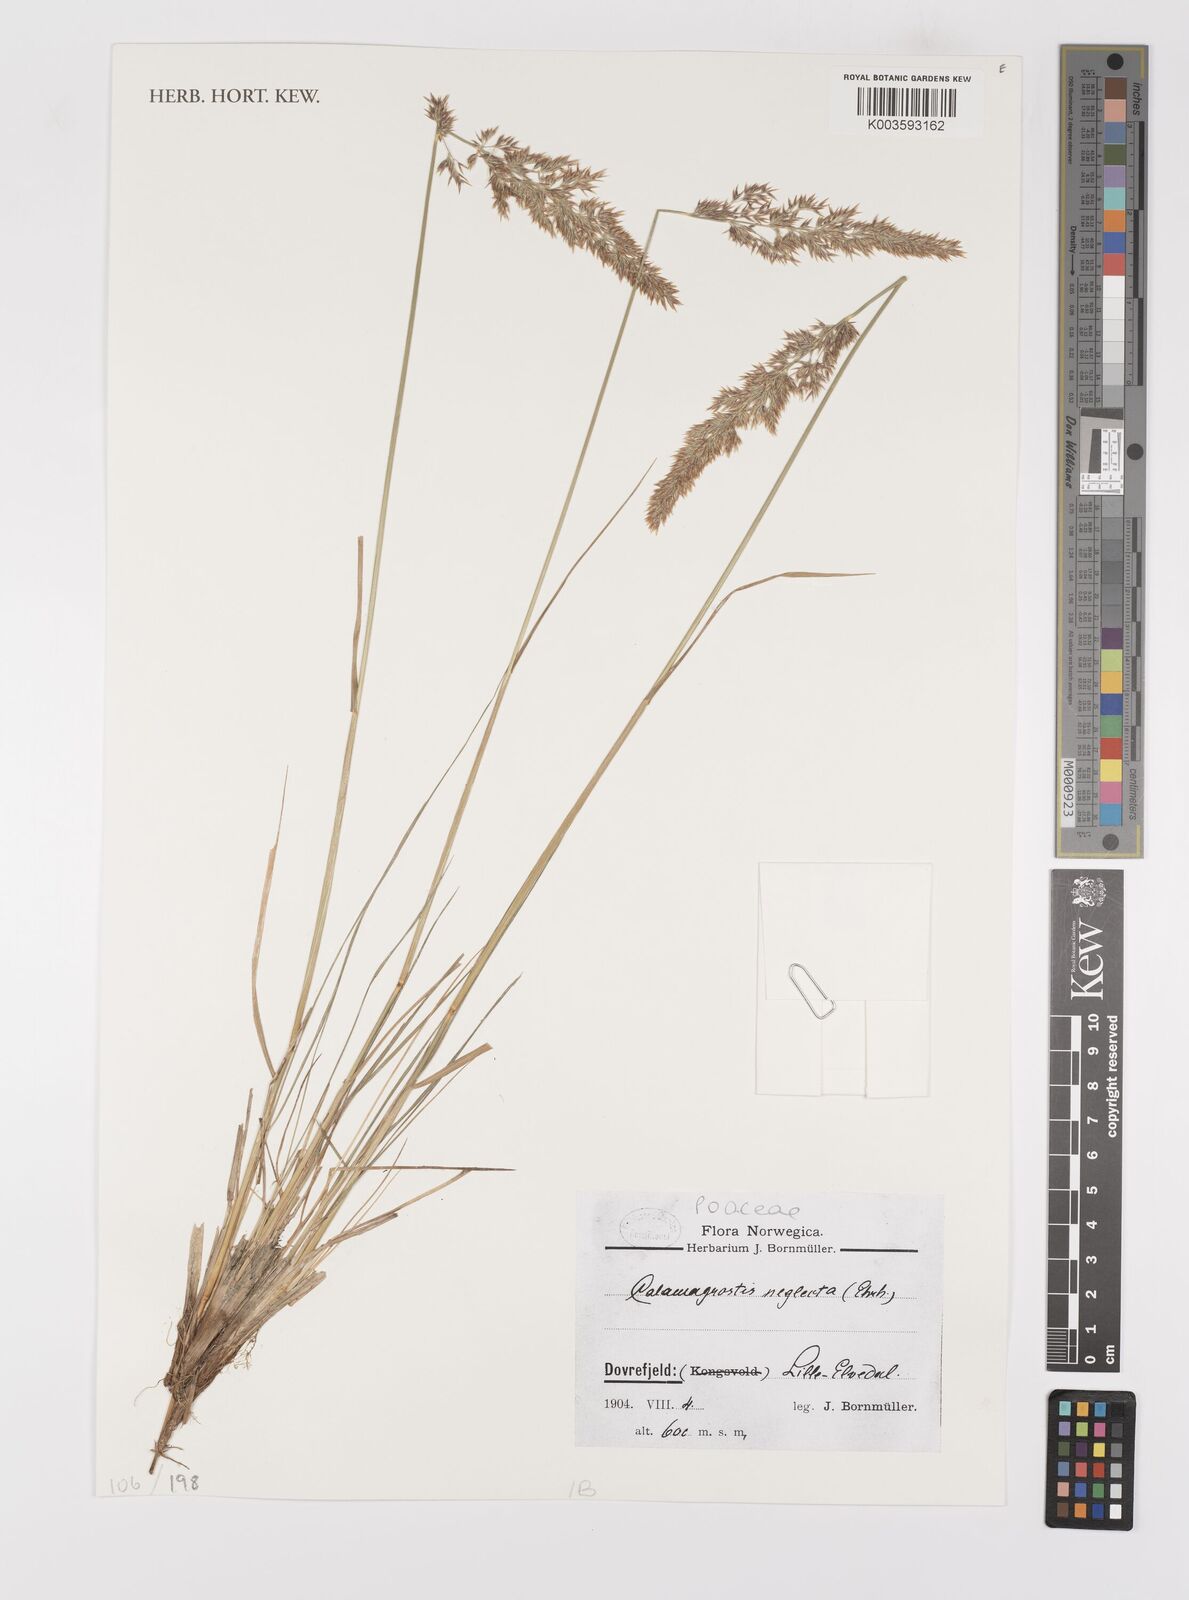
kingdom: Plantae
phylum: Tracheophyta
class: Liliopsida
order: Poales
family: Poaceae
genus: Calamagrostis
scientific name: Calamagrostis
